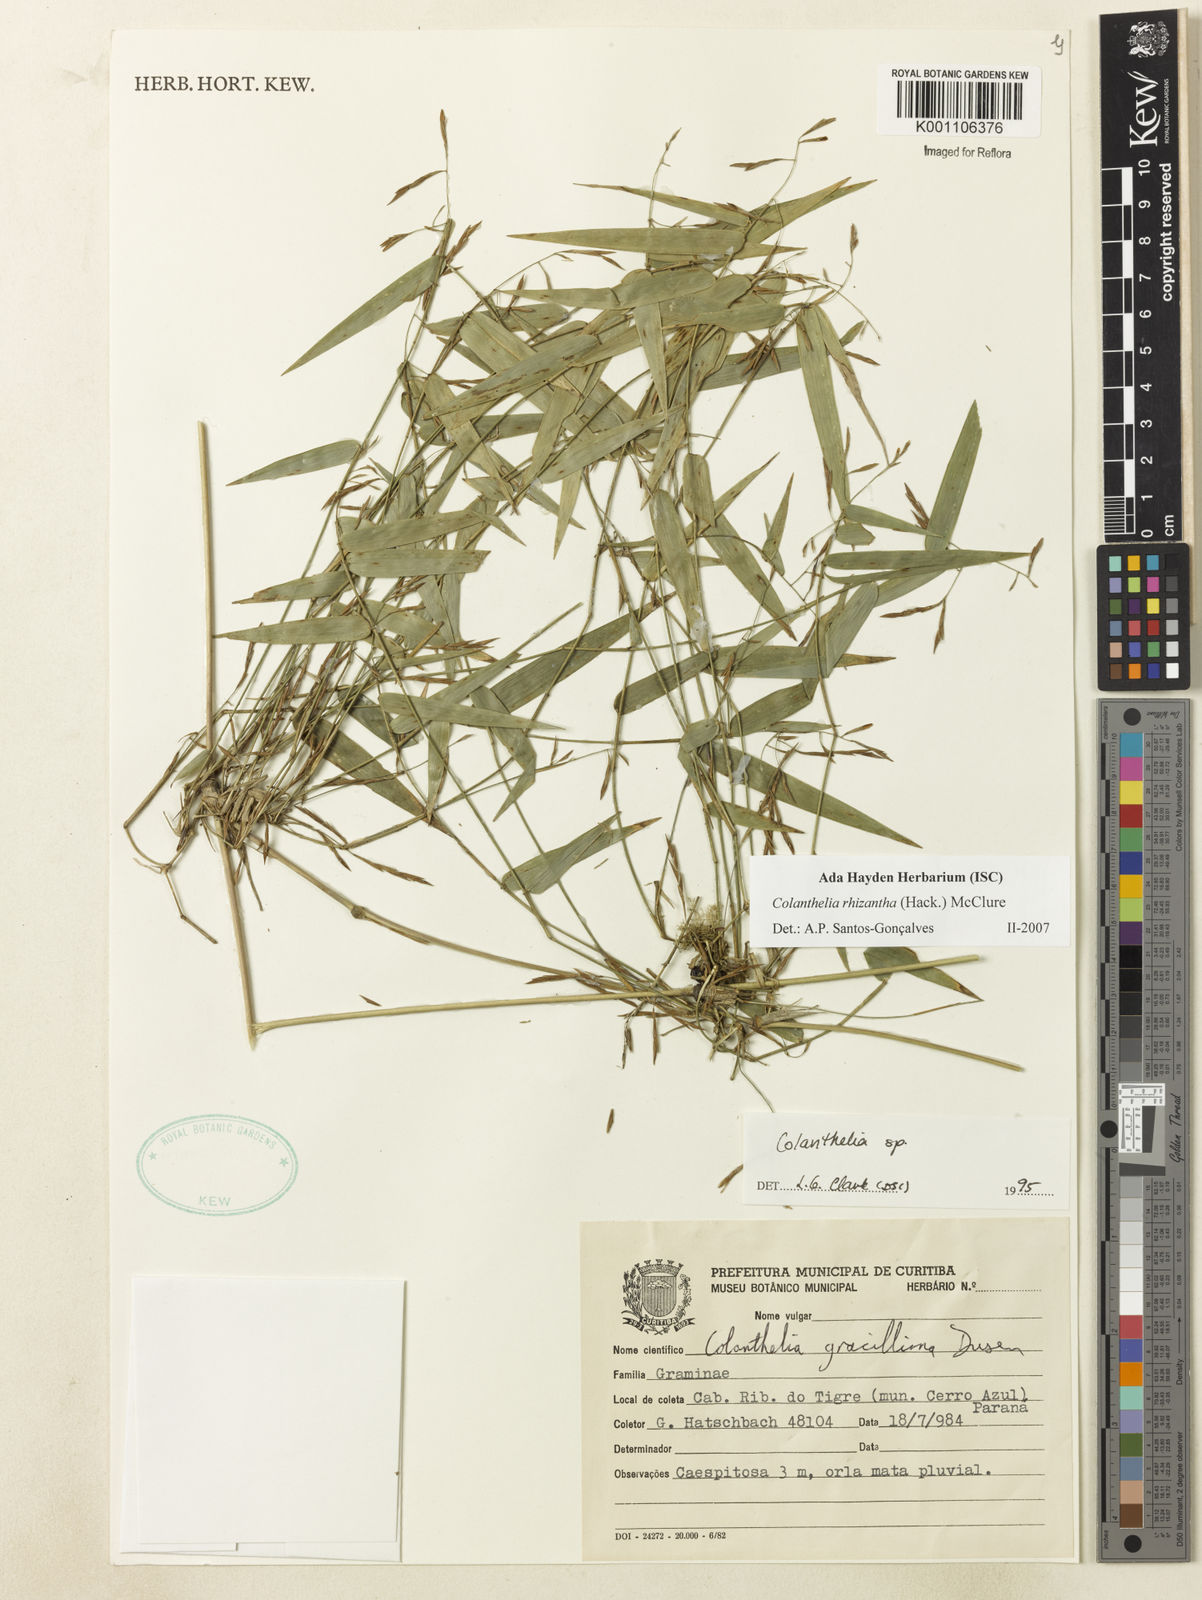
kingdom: Plantae
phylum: Tracheophyta
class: Liliopsida
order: Poales
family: Poaceae
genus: Colanthelia
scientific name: Colanthelia rhizantha
